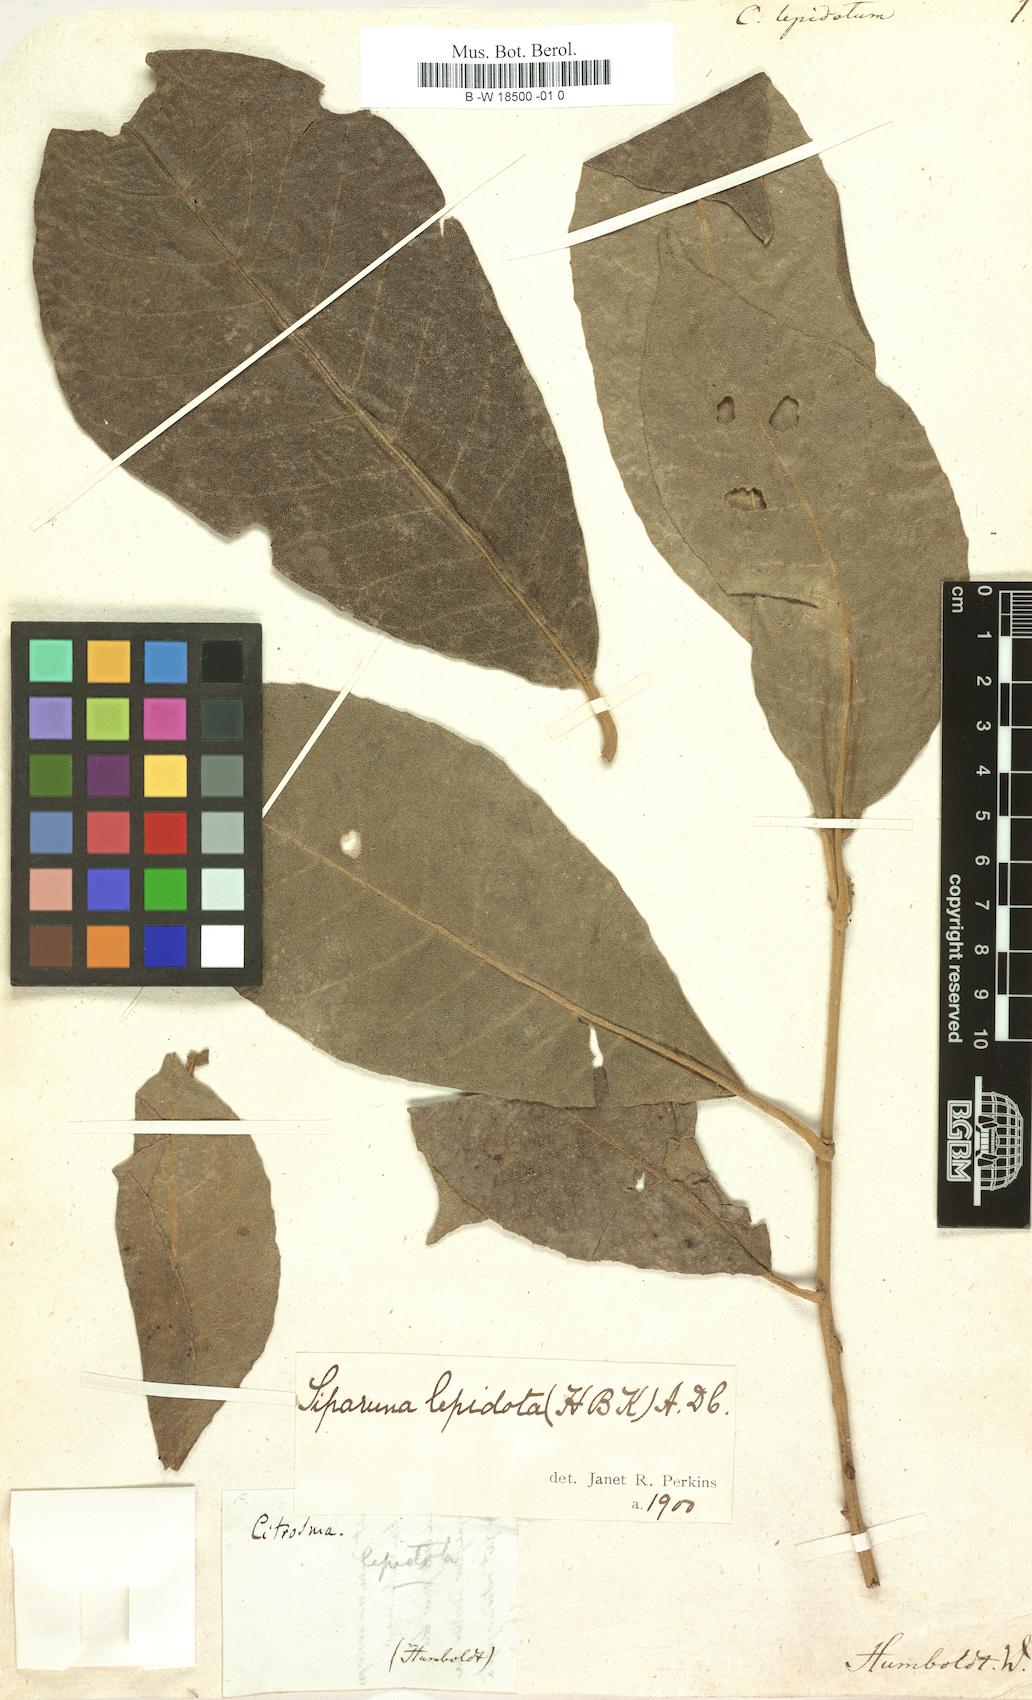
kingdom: Plantae
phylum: Tracheophyta
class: Magnoliopsida
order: Laurales
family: Siparunaceae
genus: Siparuna
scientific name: Siparuna lepidota
